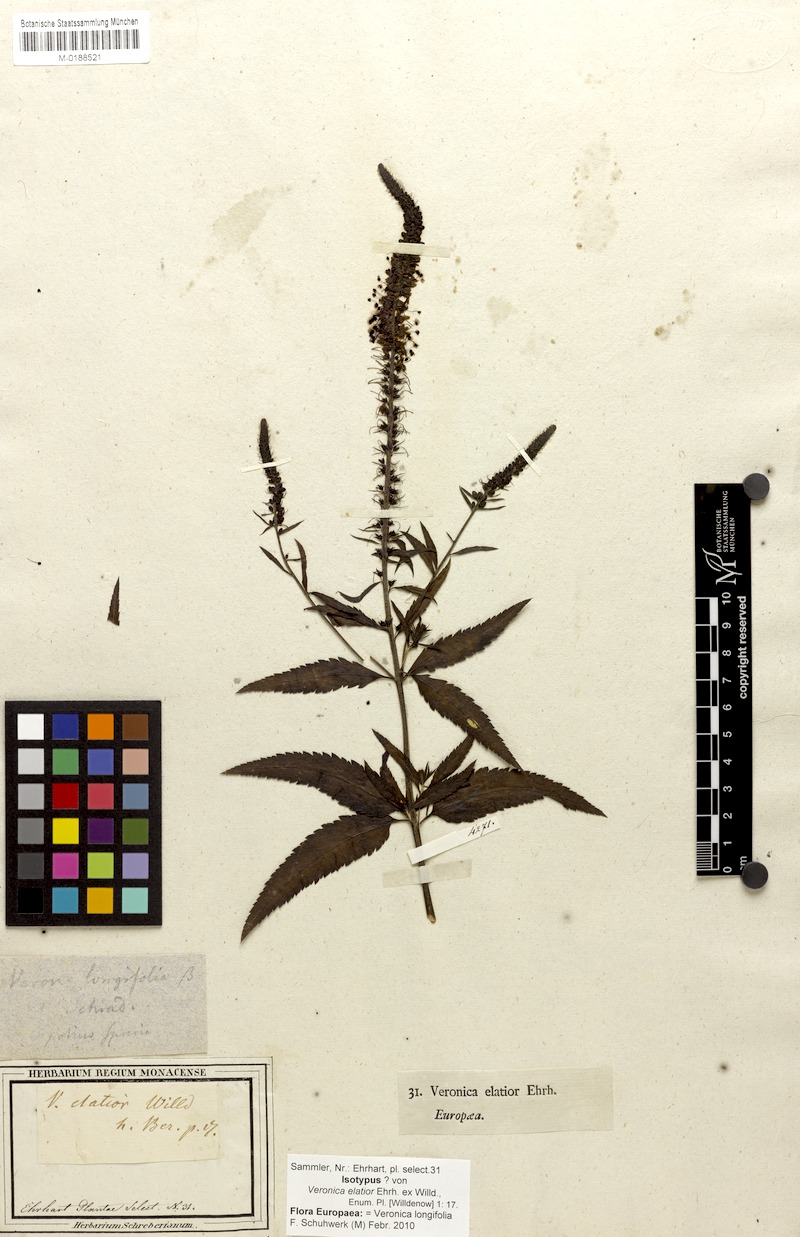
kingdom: Plantae
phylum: Tracheophyta
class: Magnoliopsida
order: Lamiales
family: Plantaginaceae
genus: Veronica
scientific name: Veronica longifolia
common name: Garden speedwell
